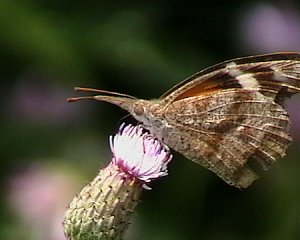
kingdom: Animalia
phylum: Arthropoda
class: Insecta
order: Lepidoptera
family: Nymphalidae
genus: Libytheana
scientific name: Libytheana carinenta
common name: American Snout
